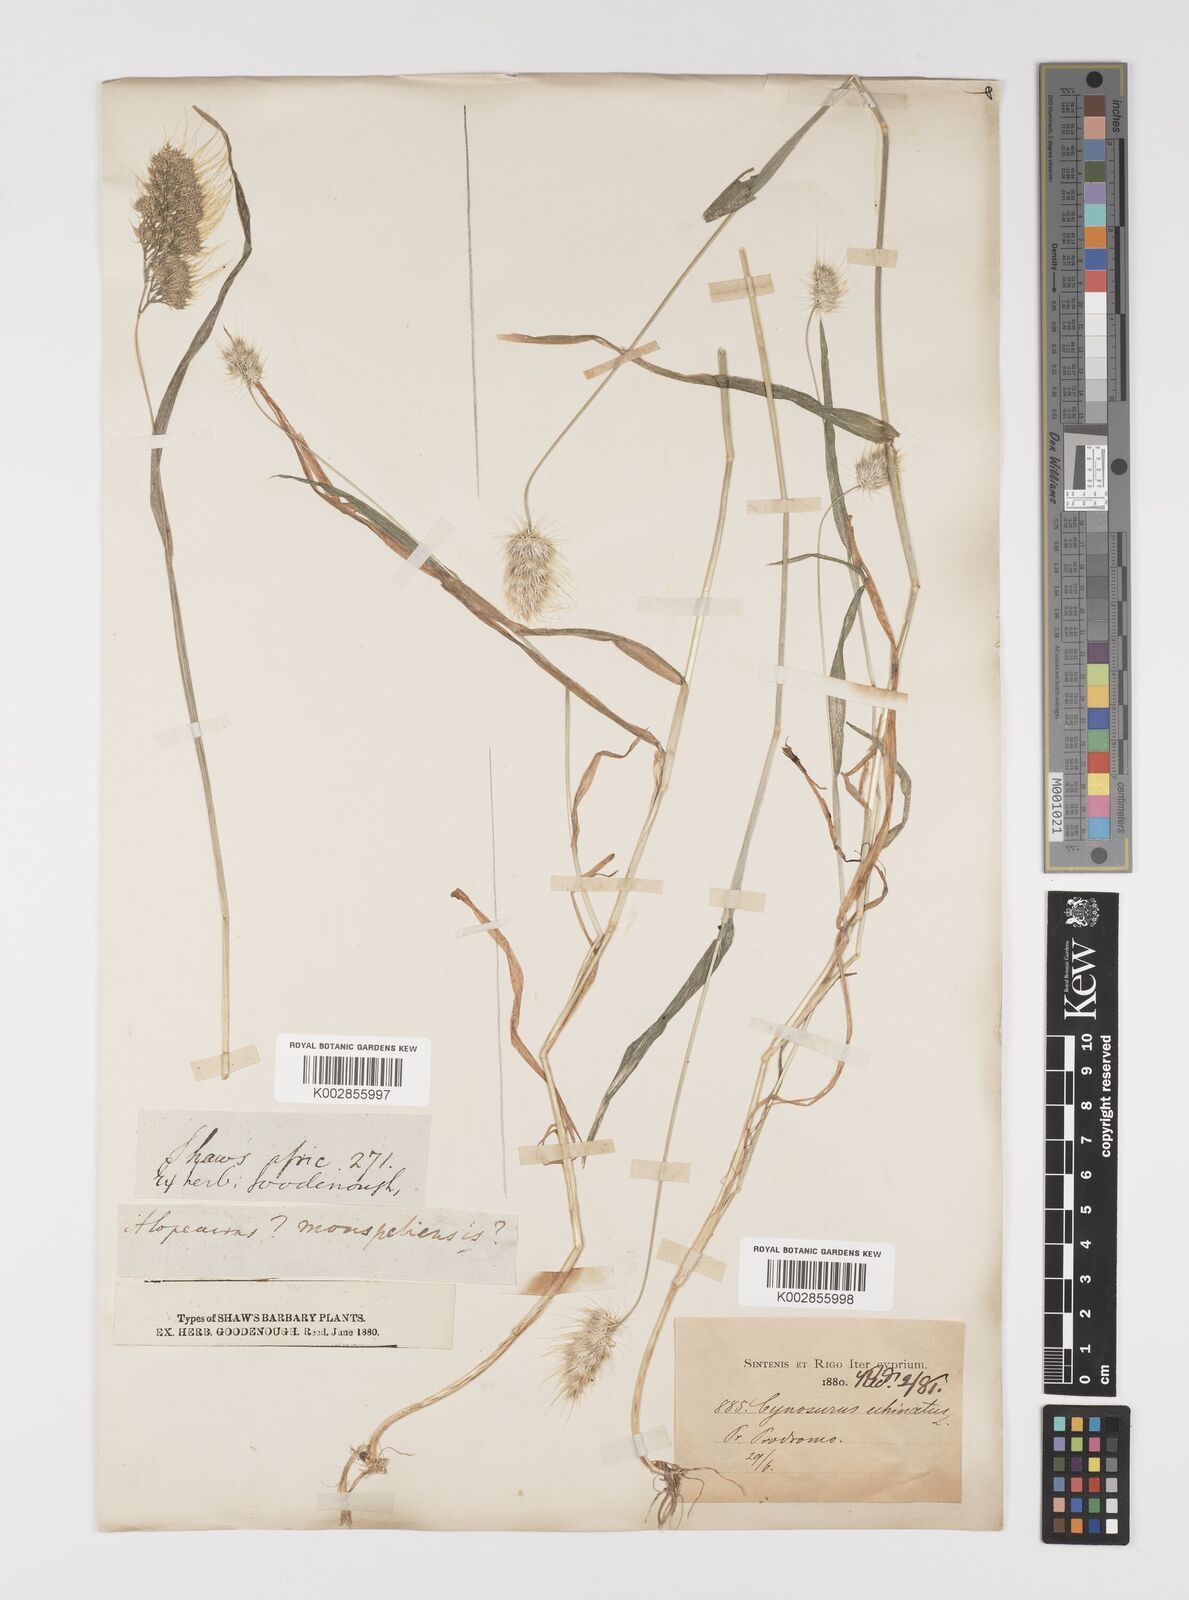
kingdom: Plantae
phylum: Tracheophyta
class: Liliopsida
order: Poales
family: Poaceae
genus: Cynosurus
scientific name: Cynosurus echinatus
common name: Rough dog's-tail
